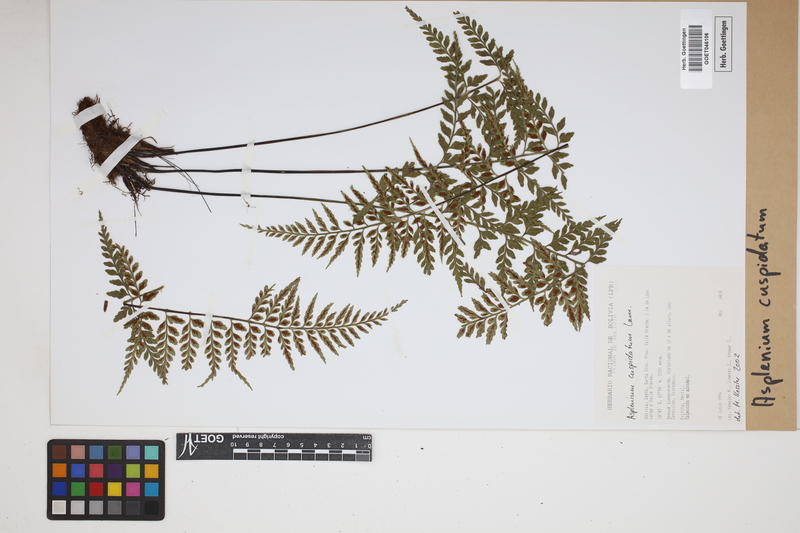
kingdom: Plantae
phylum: Tracheophyta
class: Polypodiopsida
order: Polypodiales
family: Aspleniaceae
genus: Asplenium
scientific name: Asplenium cuspidatum
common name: Eared spleenwort
